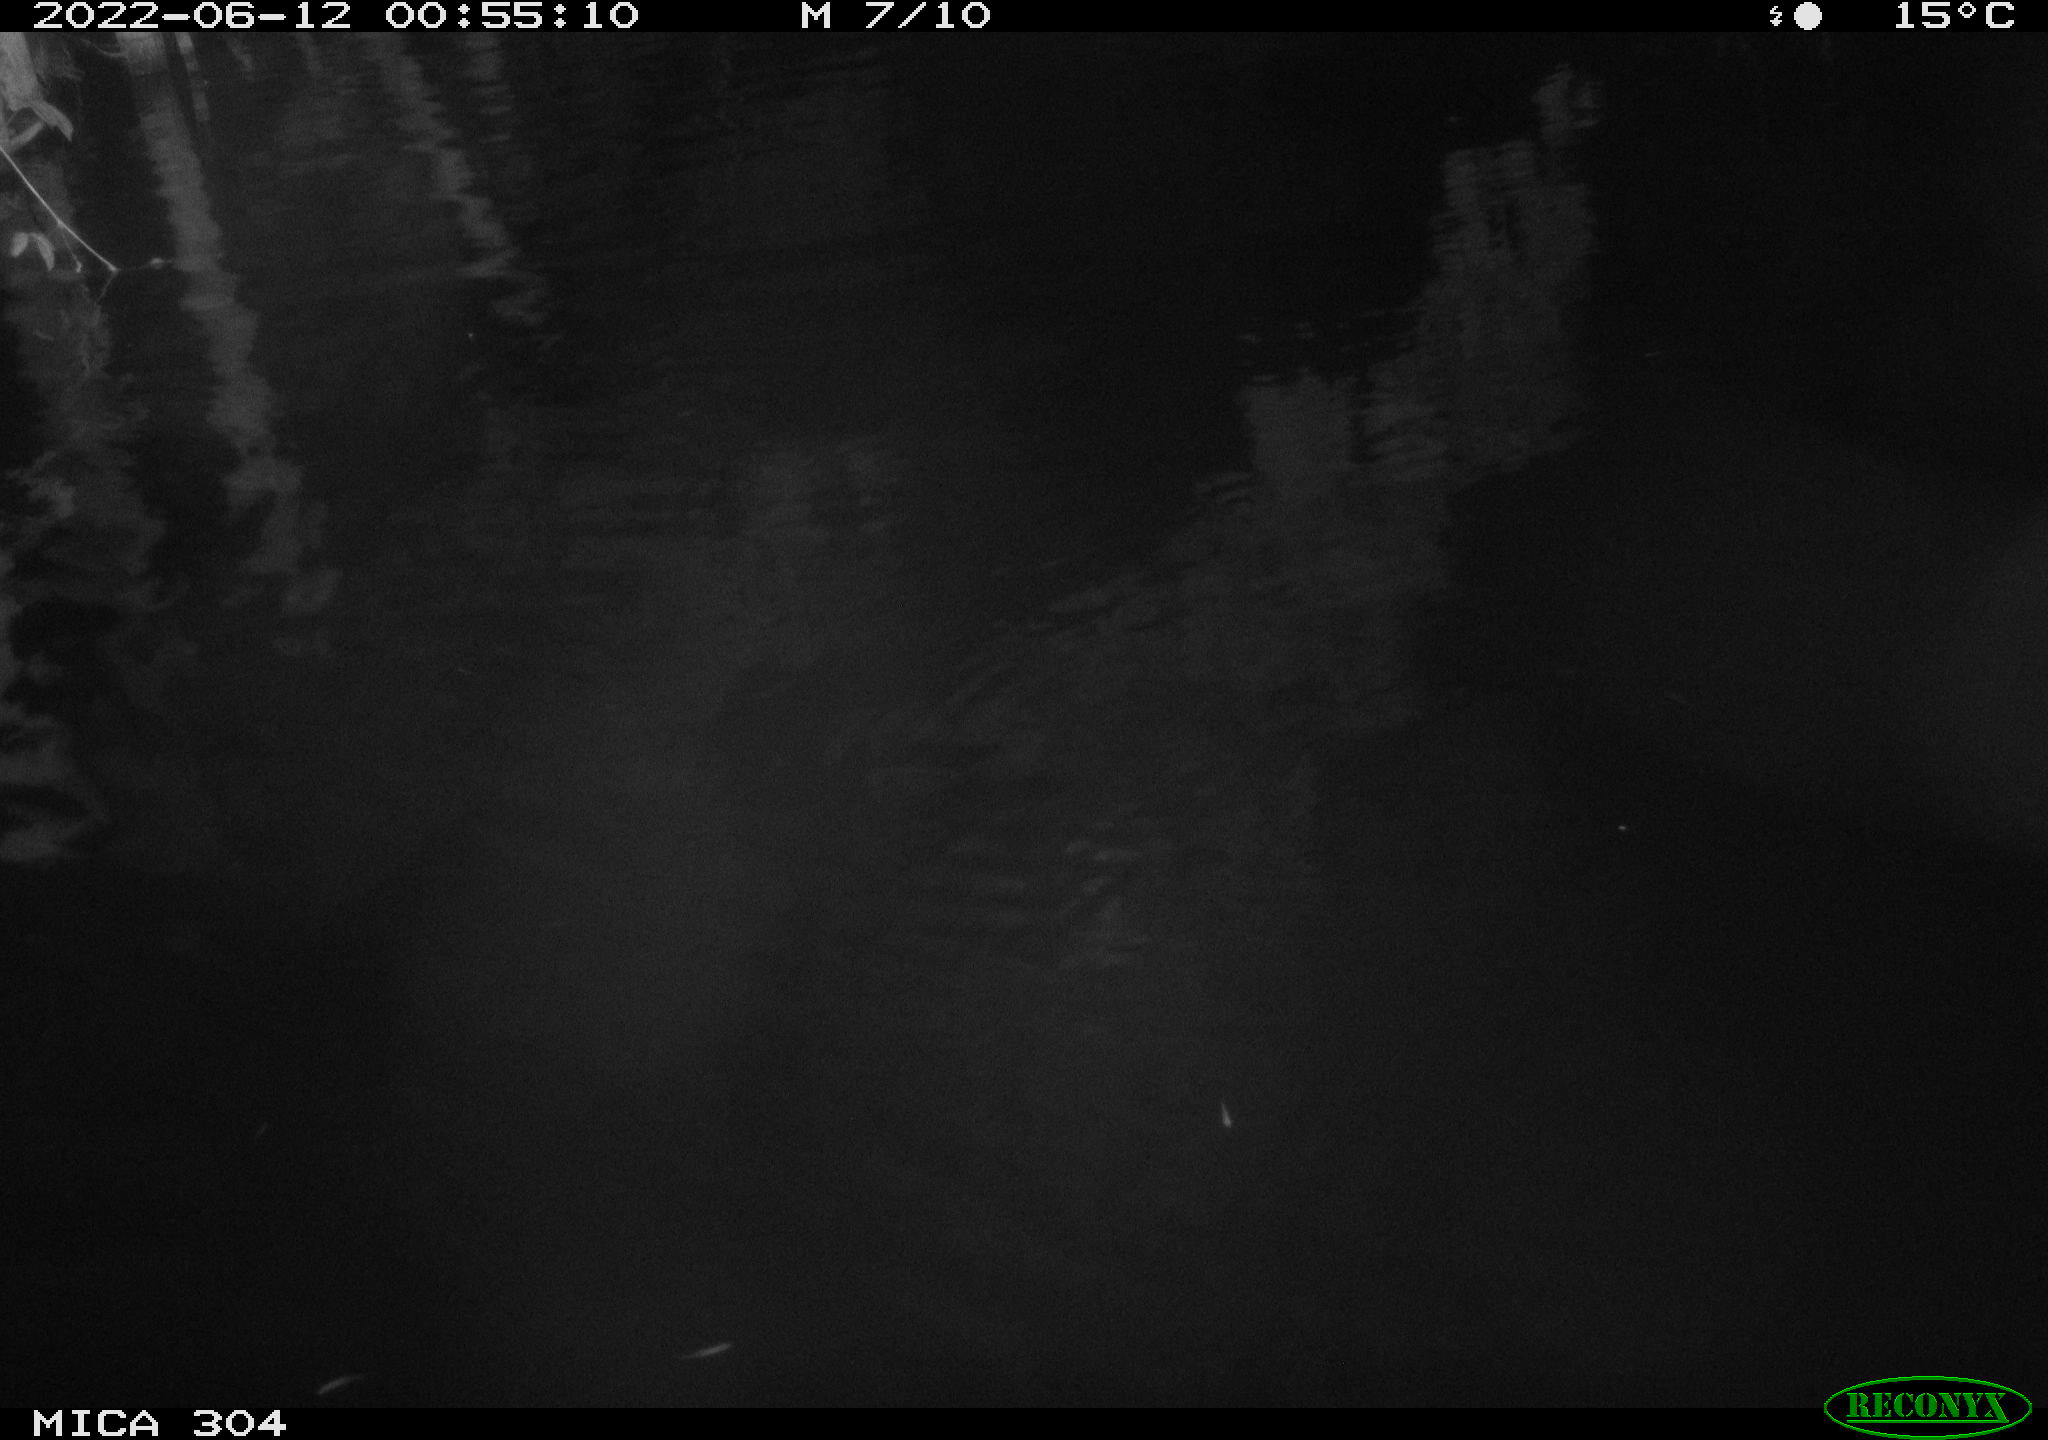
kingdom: Animalia
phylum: Chordata
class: Aves
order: Anseriformes
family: Anatidae
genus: Anas
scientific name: Anas platyrhynchos
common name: Mallard
